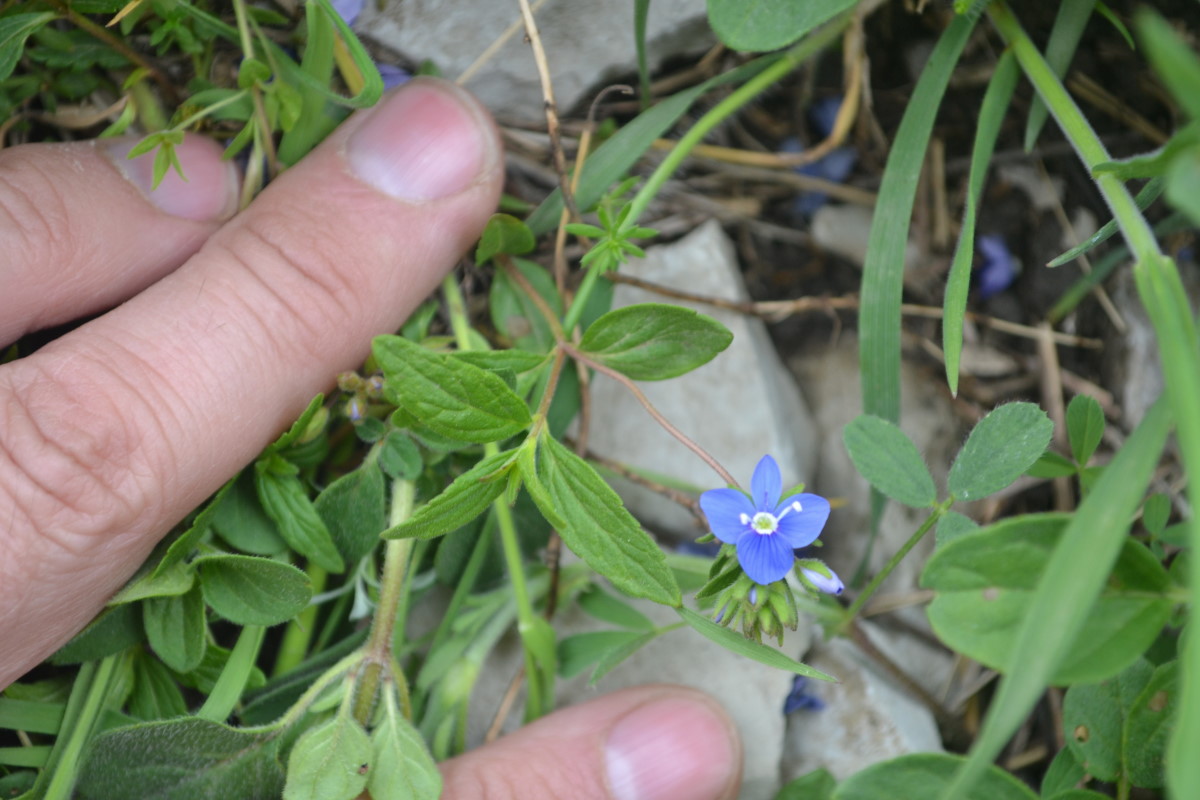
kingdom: Plantae
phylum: Tracheophyta
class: Magnoliopsida
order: Lamiales
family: Plantaginaceae
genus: Veronica
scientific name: Veronica
